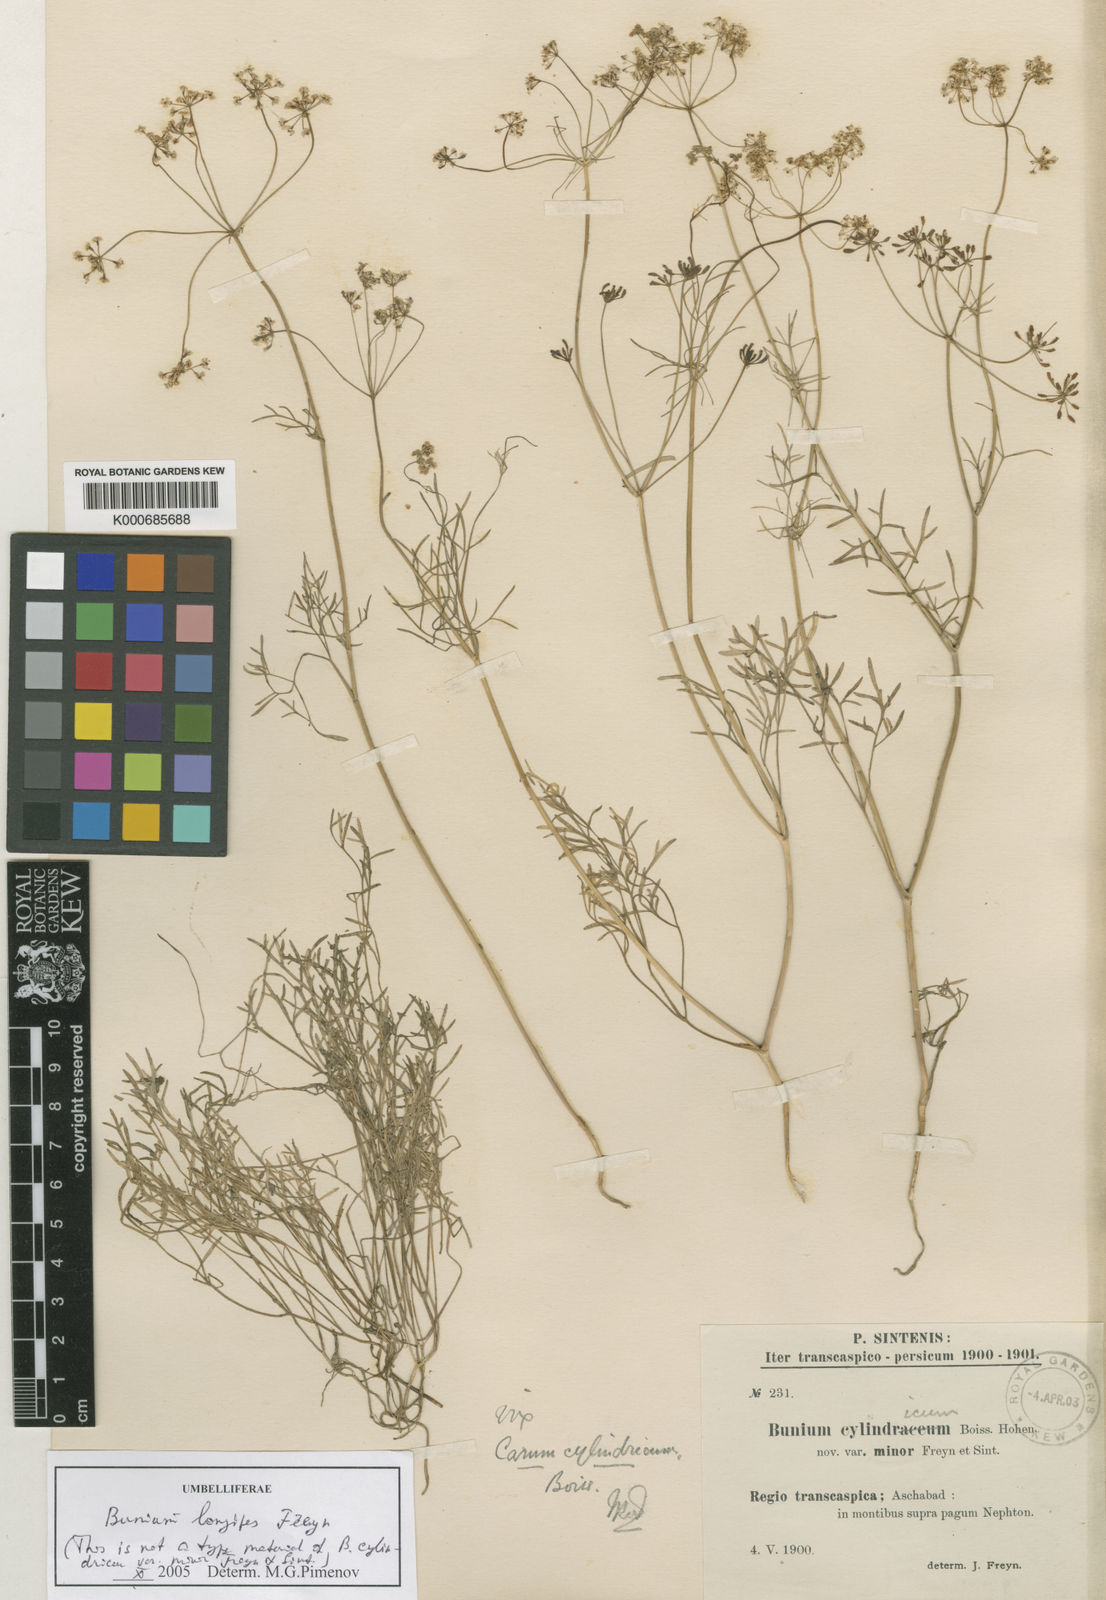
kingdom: Plantae
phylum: Tracheophyta
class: Magnoliopsida
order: Apiales
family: Apiaceae
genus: Bunium
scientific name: Bunium
